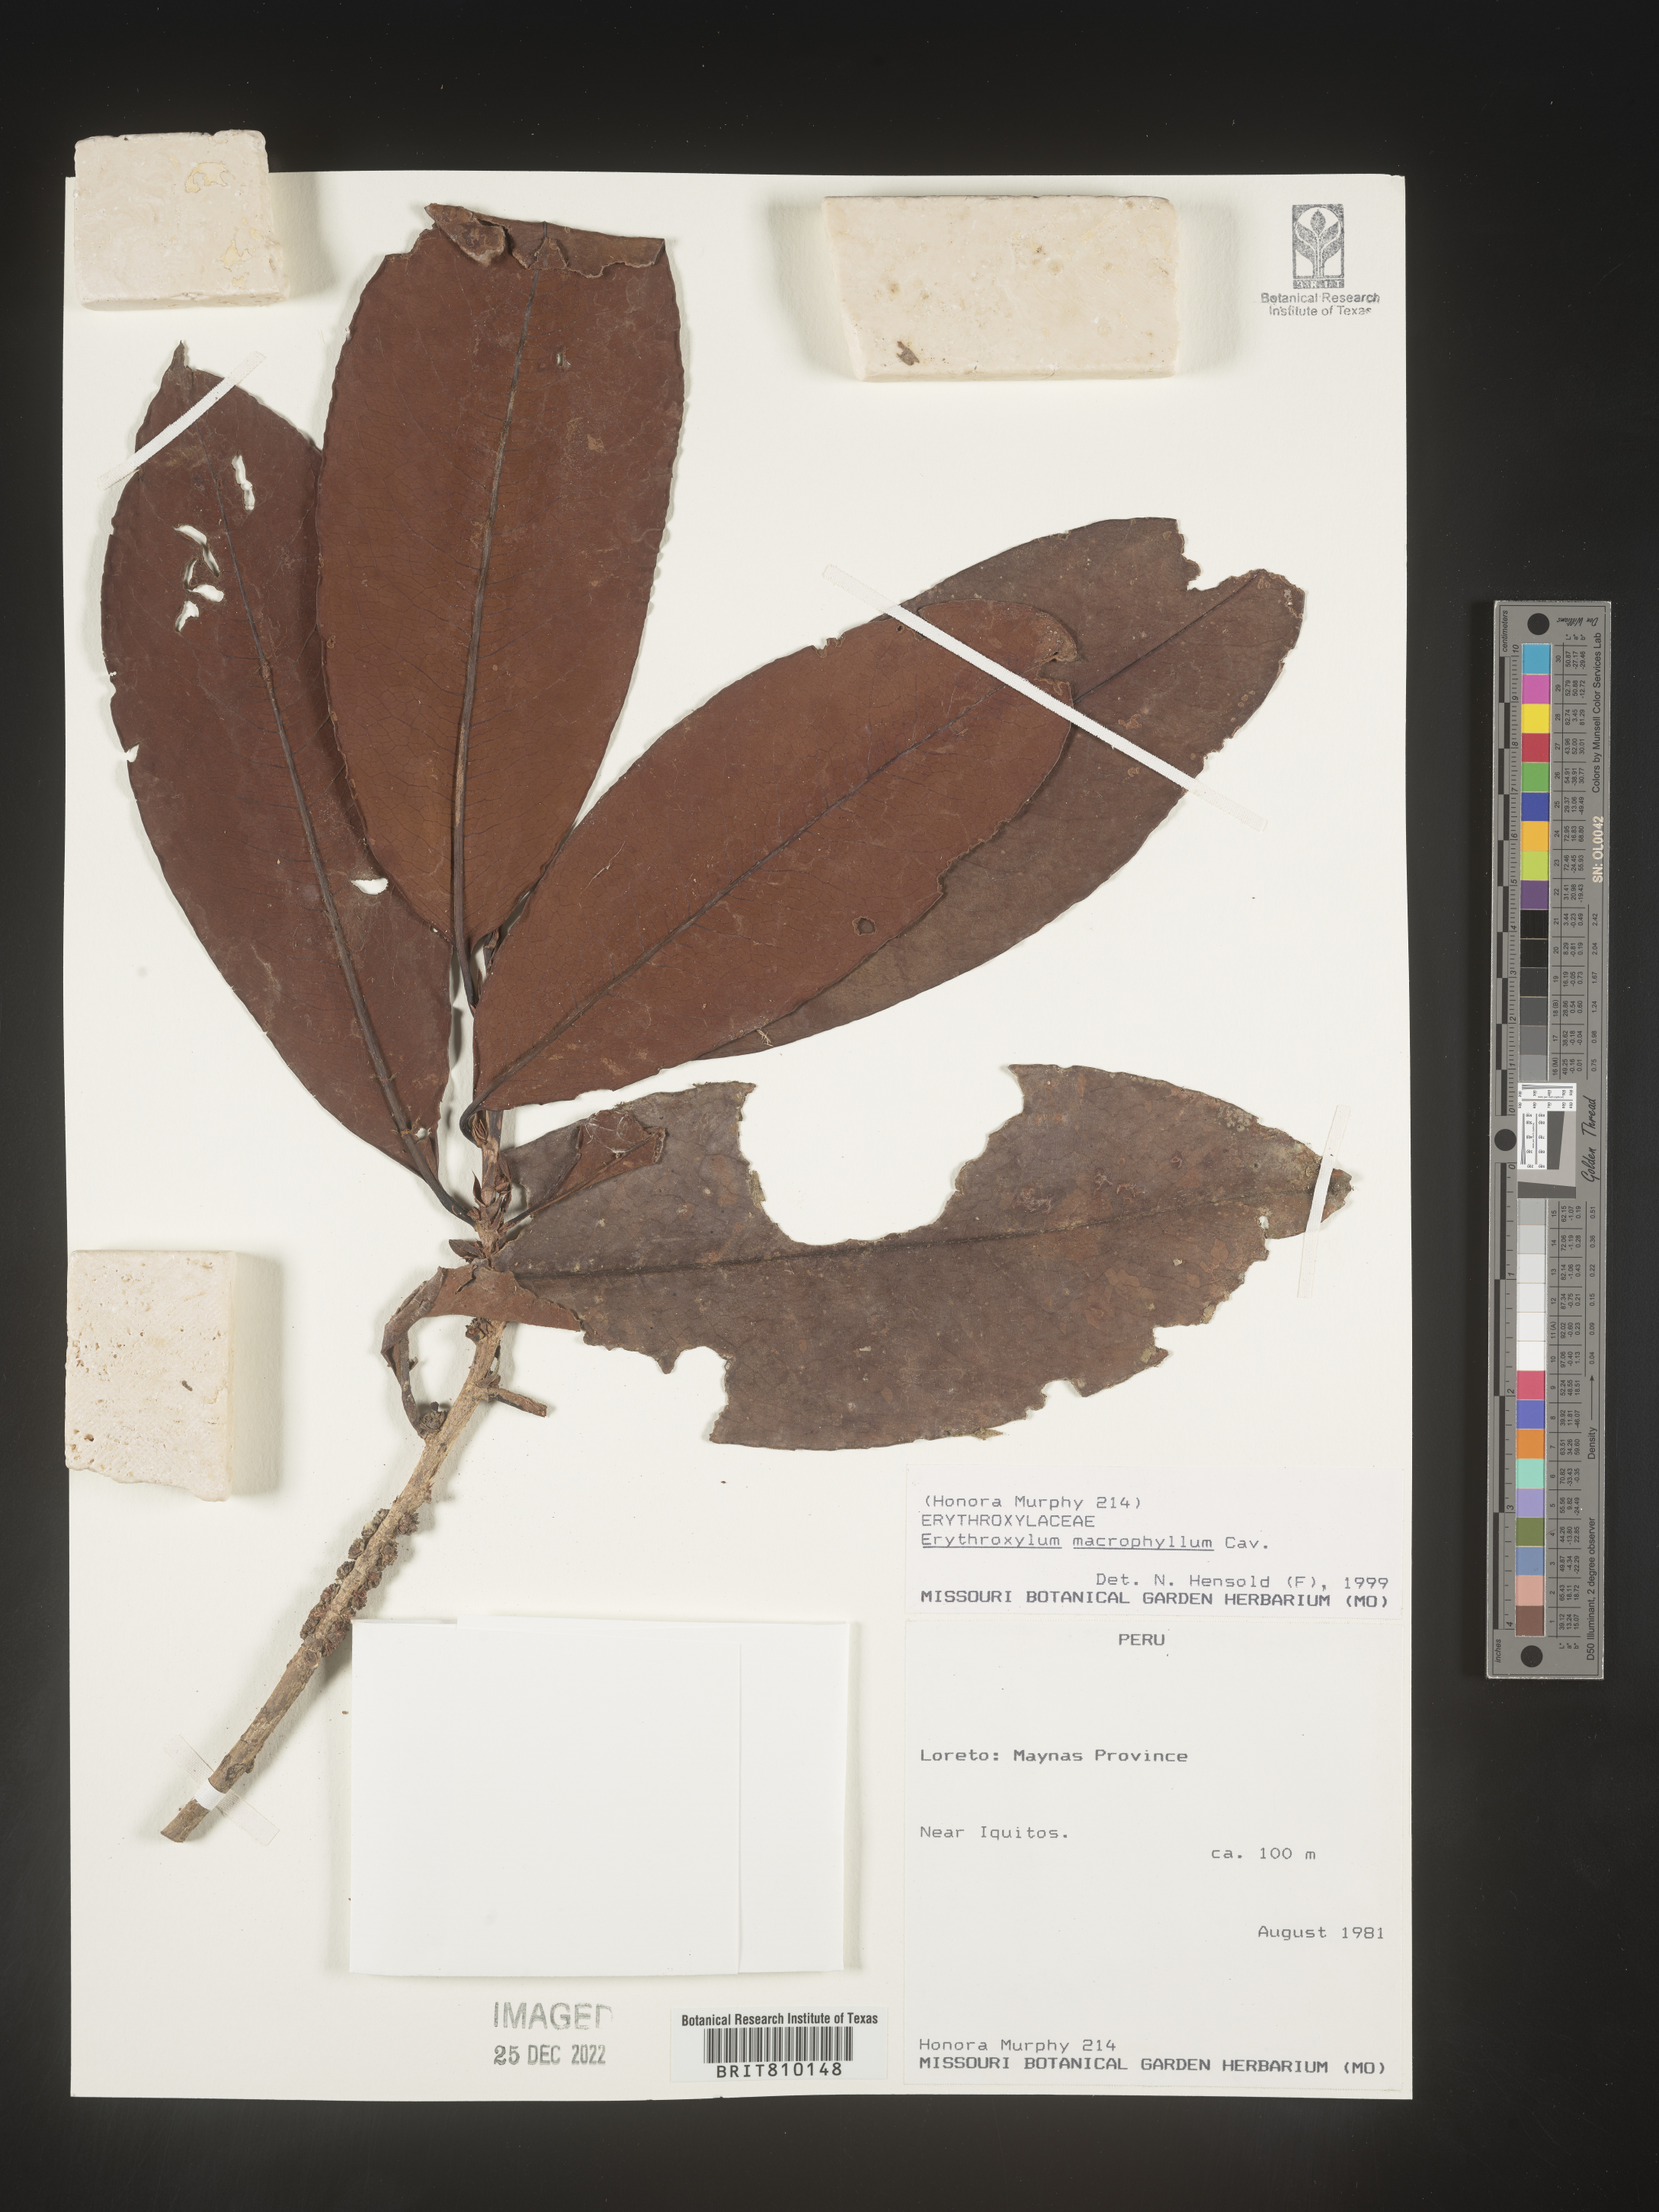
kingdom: Plantae
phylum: Tracheophyta
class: Magnoliopsida
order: Malpighiales
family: Erythroxylaceae
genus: Erythroxylum
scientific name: Erythroxylum
